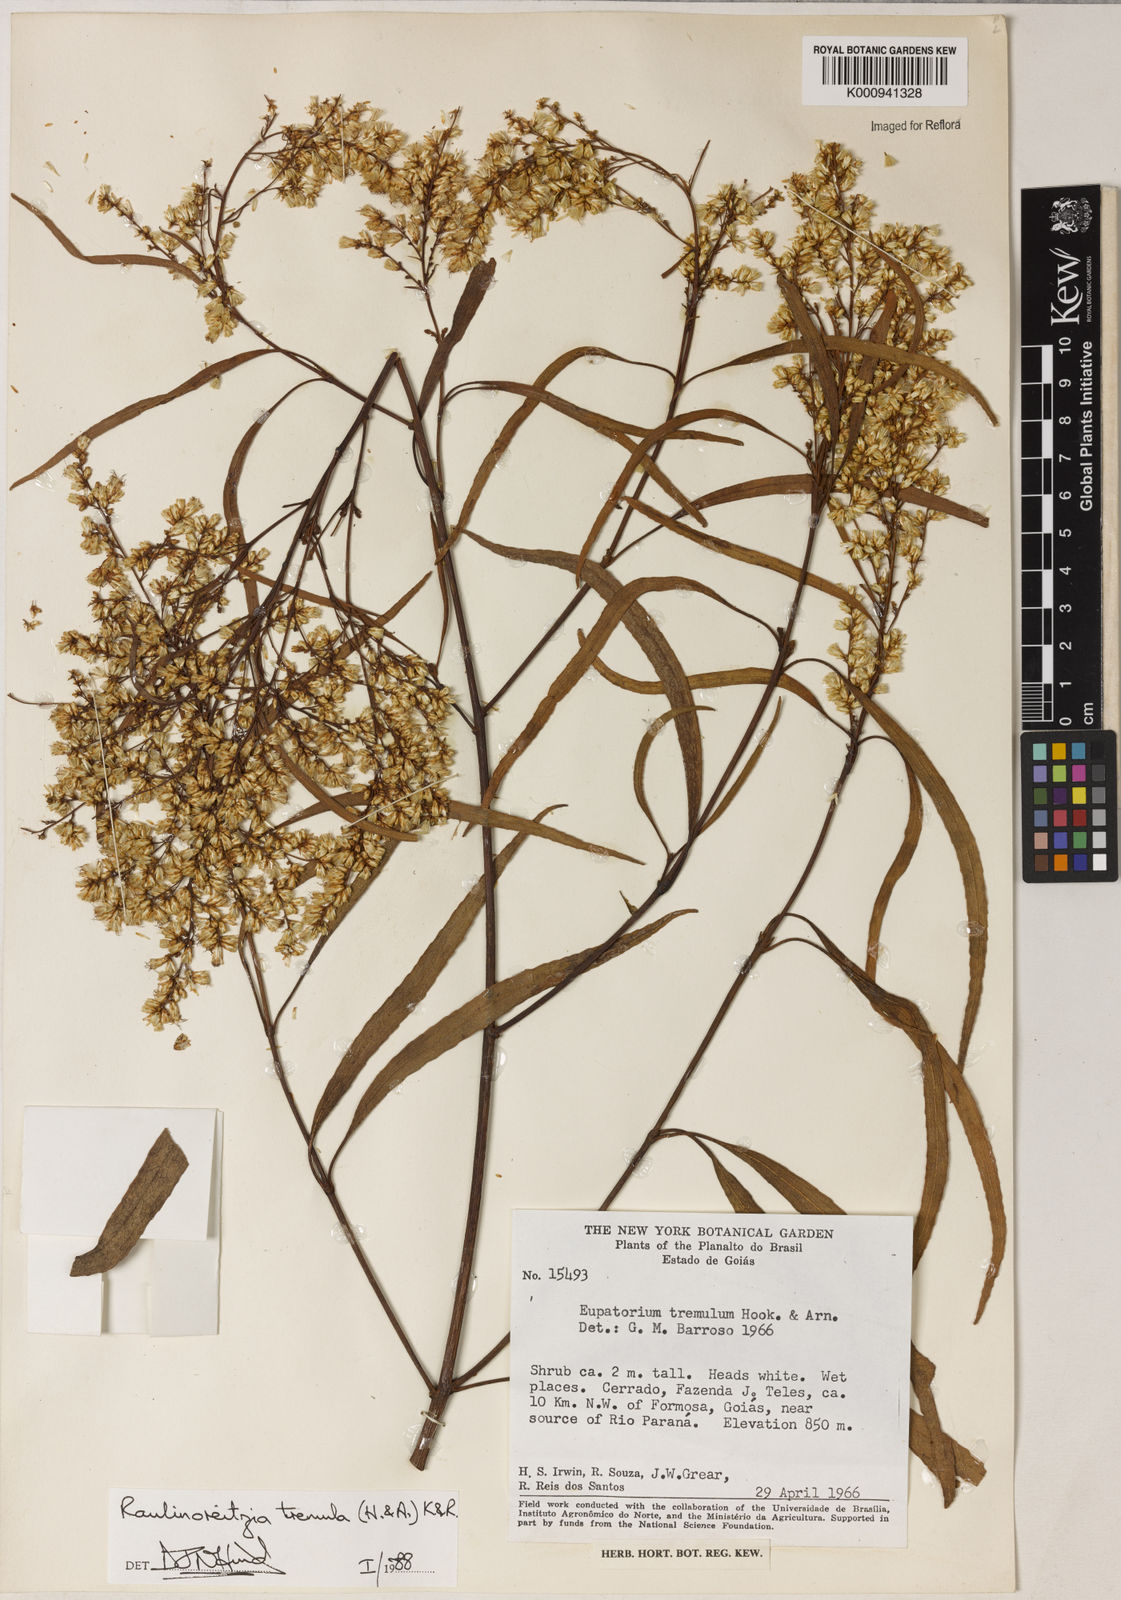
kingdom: Plantae
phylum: Tracheophyta
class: Magnoliopsida
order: Asterales
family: Asteraceae
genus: Raulinoreitzia
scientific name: Raulinoreitzia tremula
